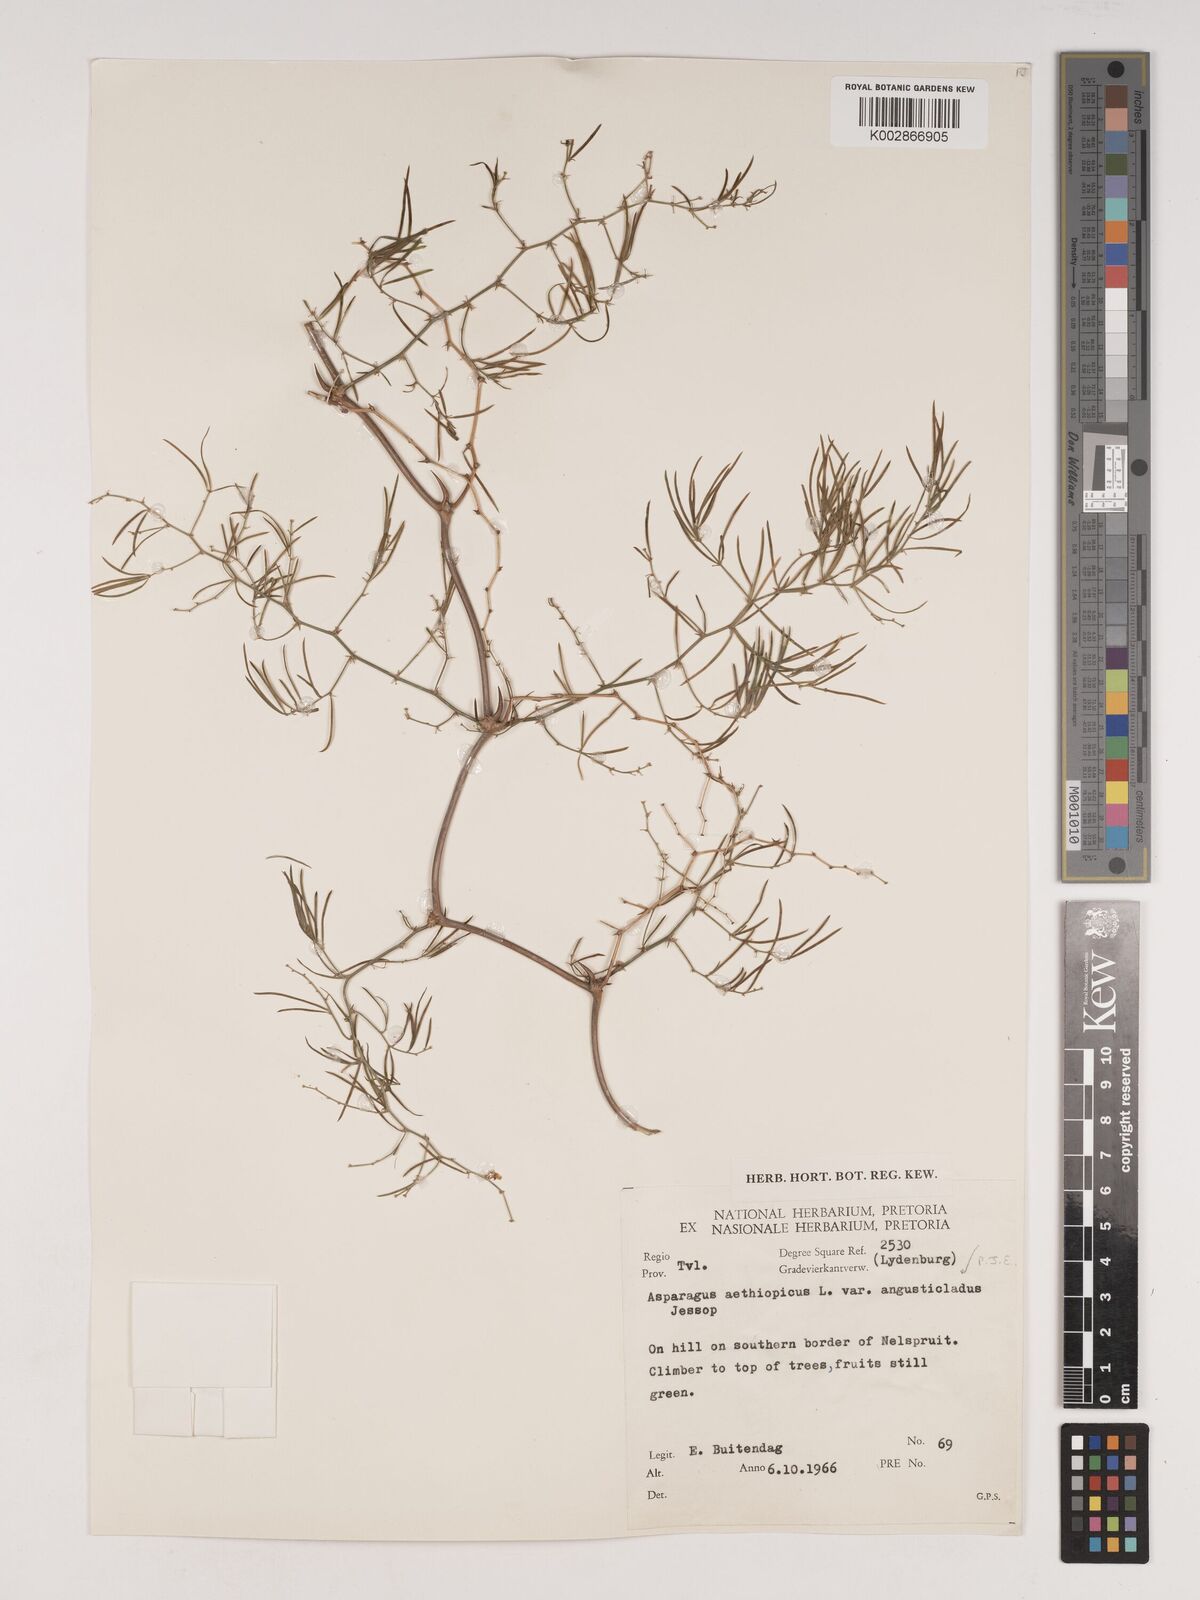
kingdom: Plantae
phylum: Tracheophyta
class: Liliopsida
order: Asparagales
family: Asparagaceae
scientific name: Asparagaceae
